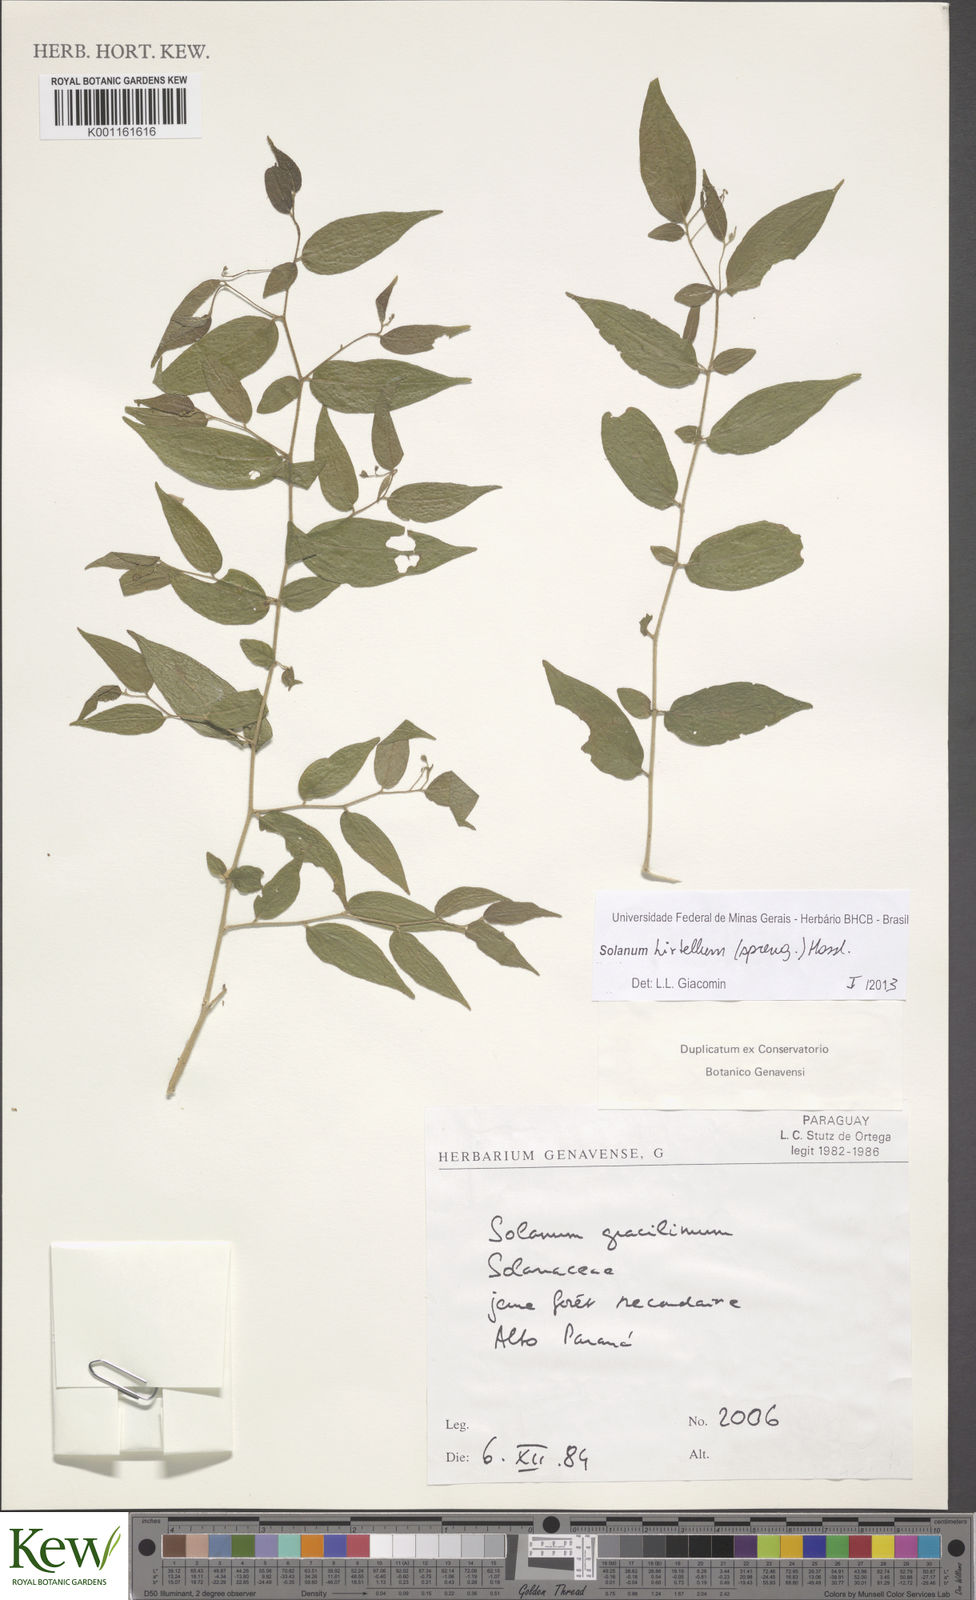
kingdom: Plantae
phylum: Tracheophyta
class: Magnoliopsida
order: Solanales
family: Solanaceae
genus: Solanum
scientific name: Solanum hirtellum
